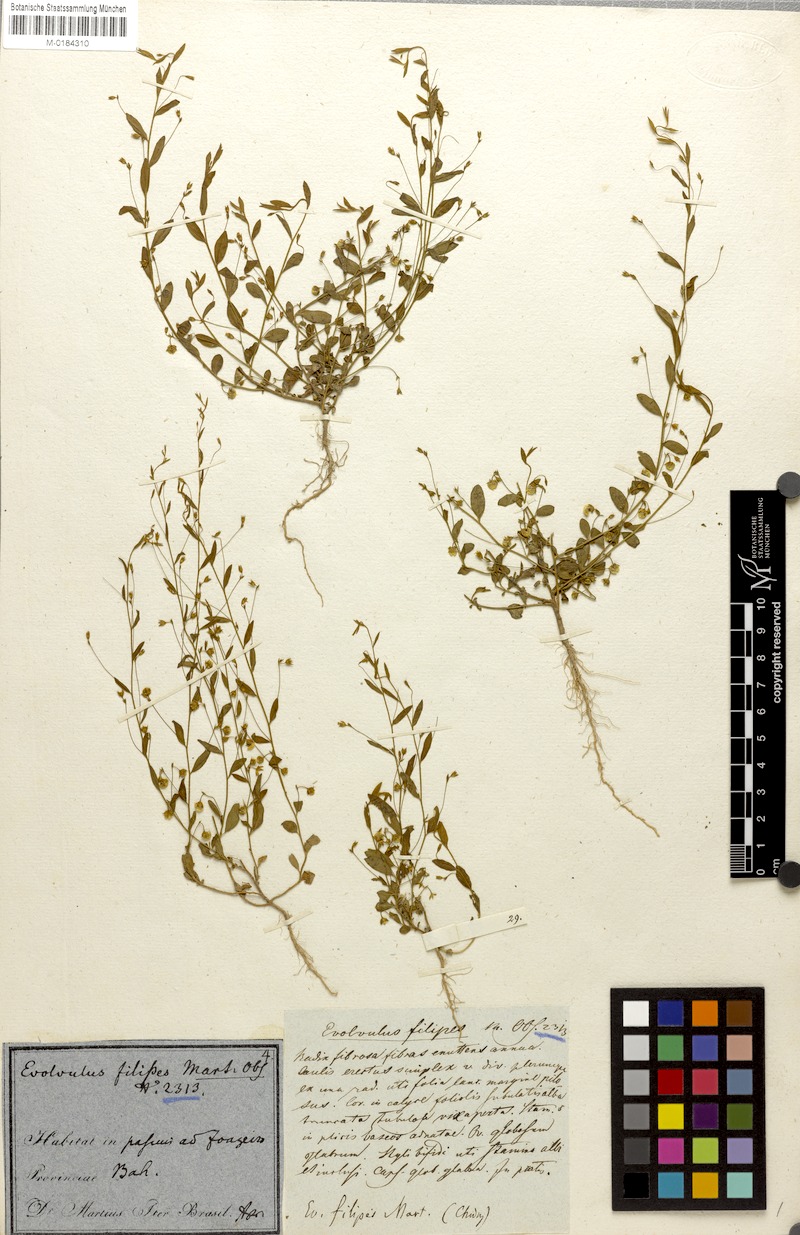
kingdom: Plantae
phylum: Tracheophyta
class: Magnoliopsida
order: Solanales
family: Convolvulaceae
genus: Evolvulus
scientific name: Evolvulus filipes
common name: Maryland dwarf morning-glory
